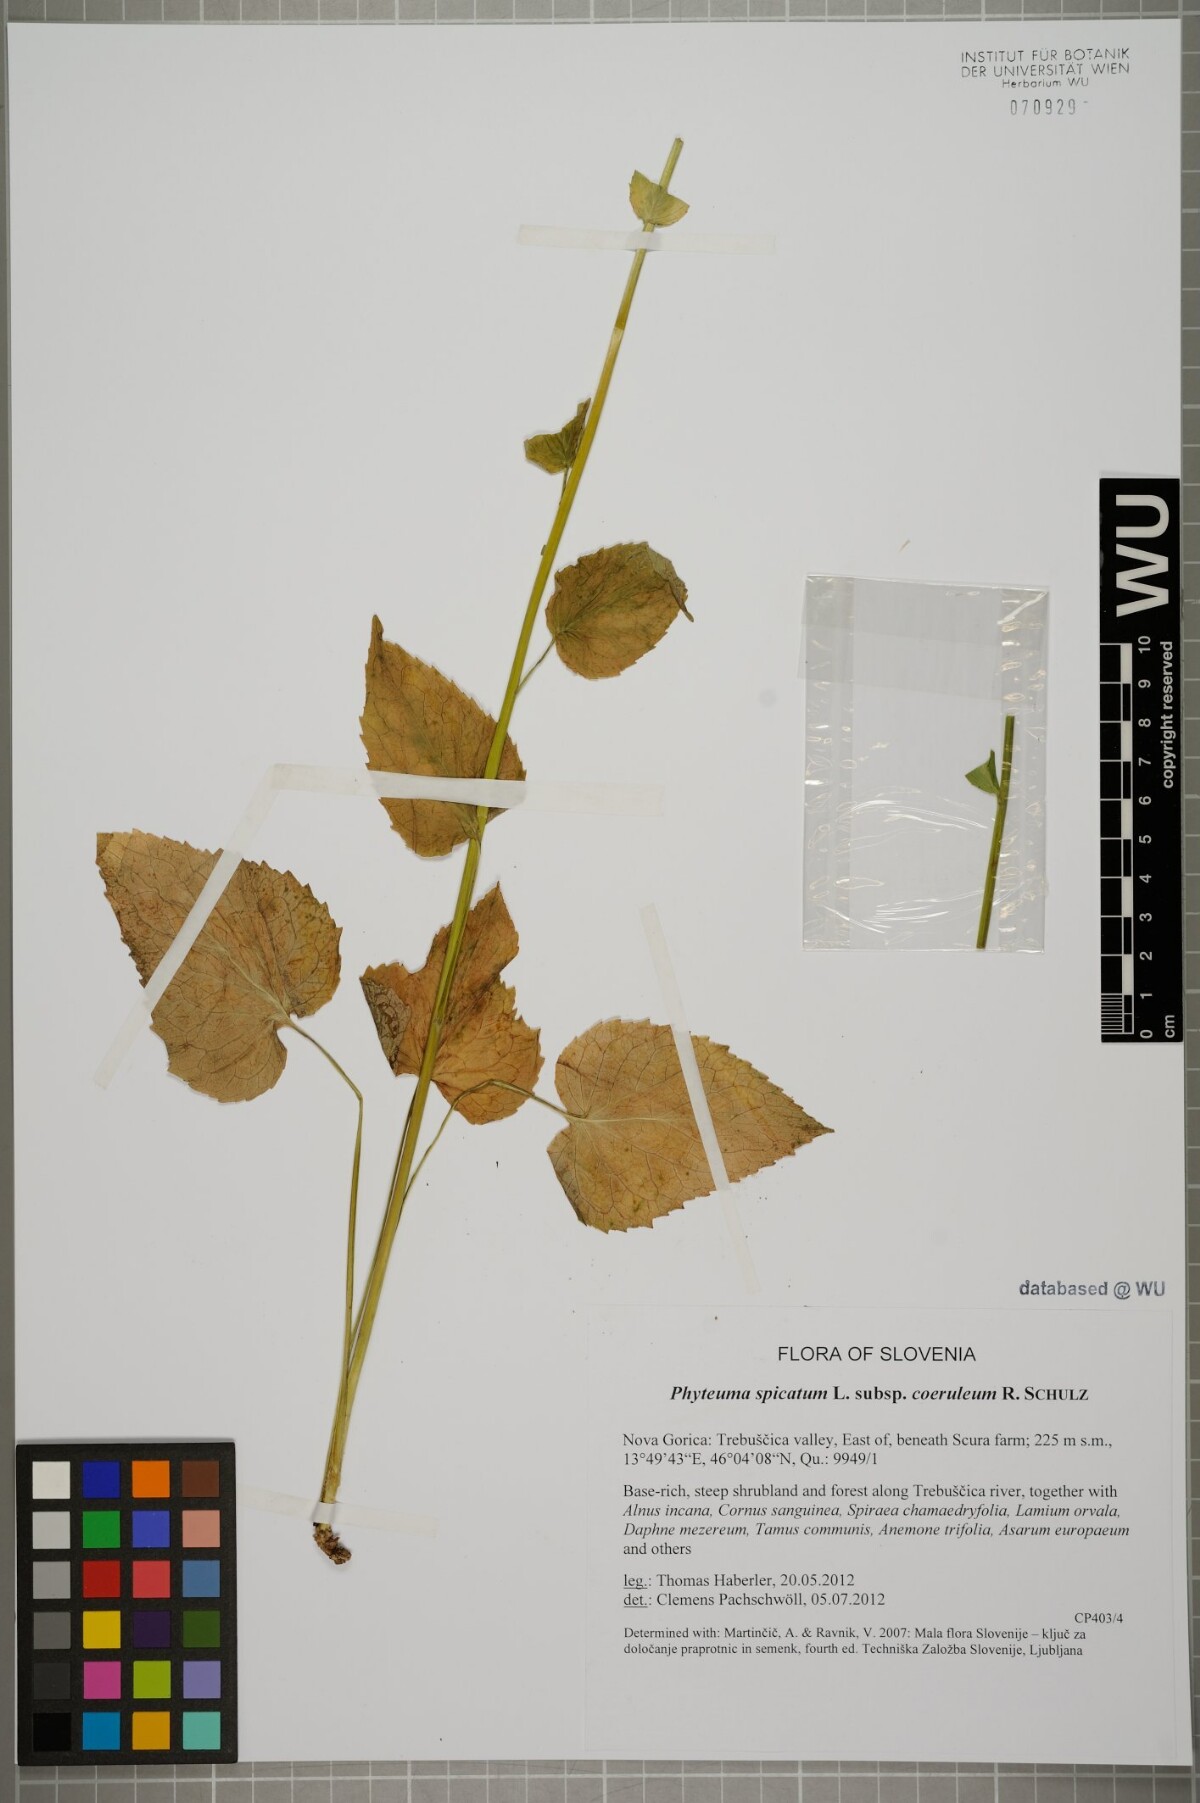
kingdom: Plantae
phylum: Tracheophyta
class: Magnoliopsida
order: Asterales
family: Campanulaceae
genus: Phyteuma
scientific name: Phyteuma spicatum
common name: Spiked rampion
